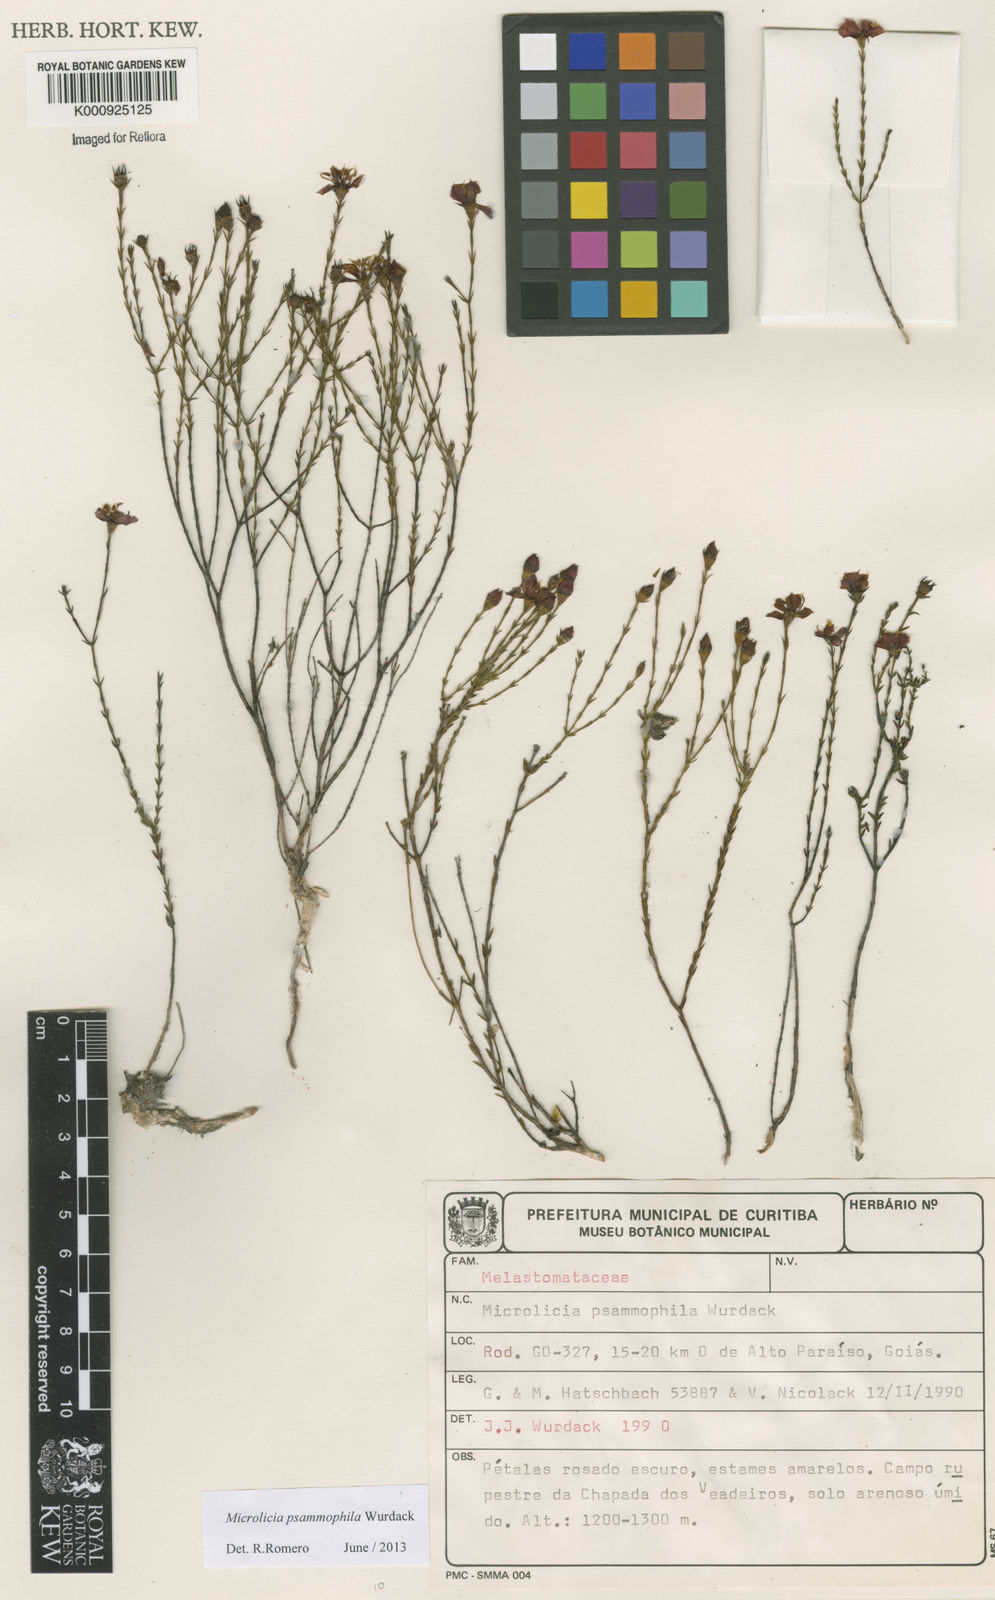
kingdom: Plantae
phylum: Tracheophyta
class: Magnoliopsida
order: Myrtales
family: Melastomataceae
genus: Microlicia
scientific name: Microlicia psammophila
